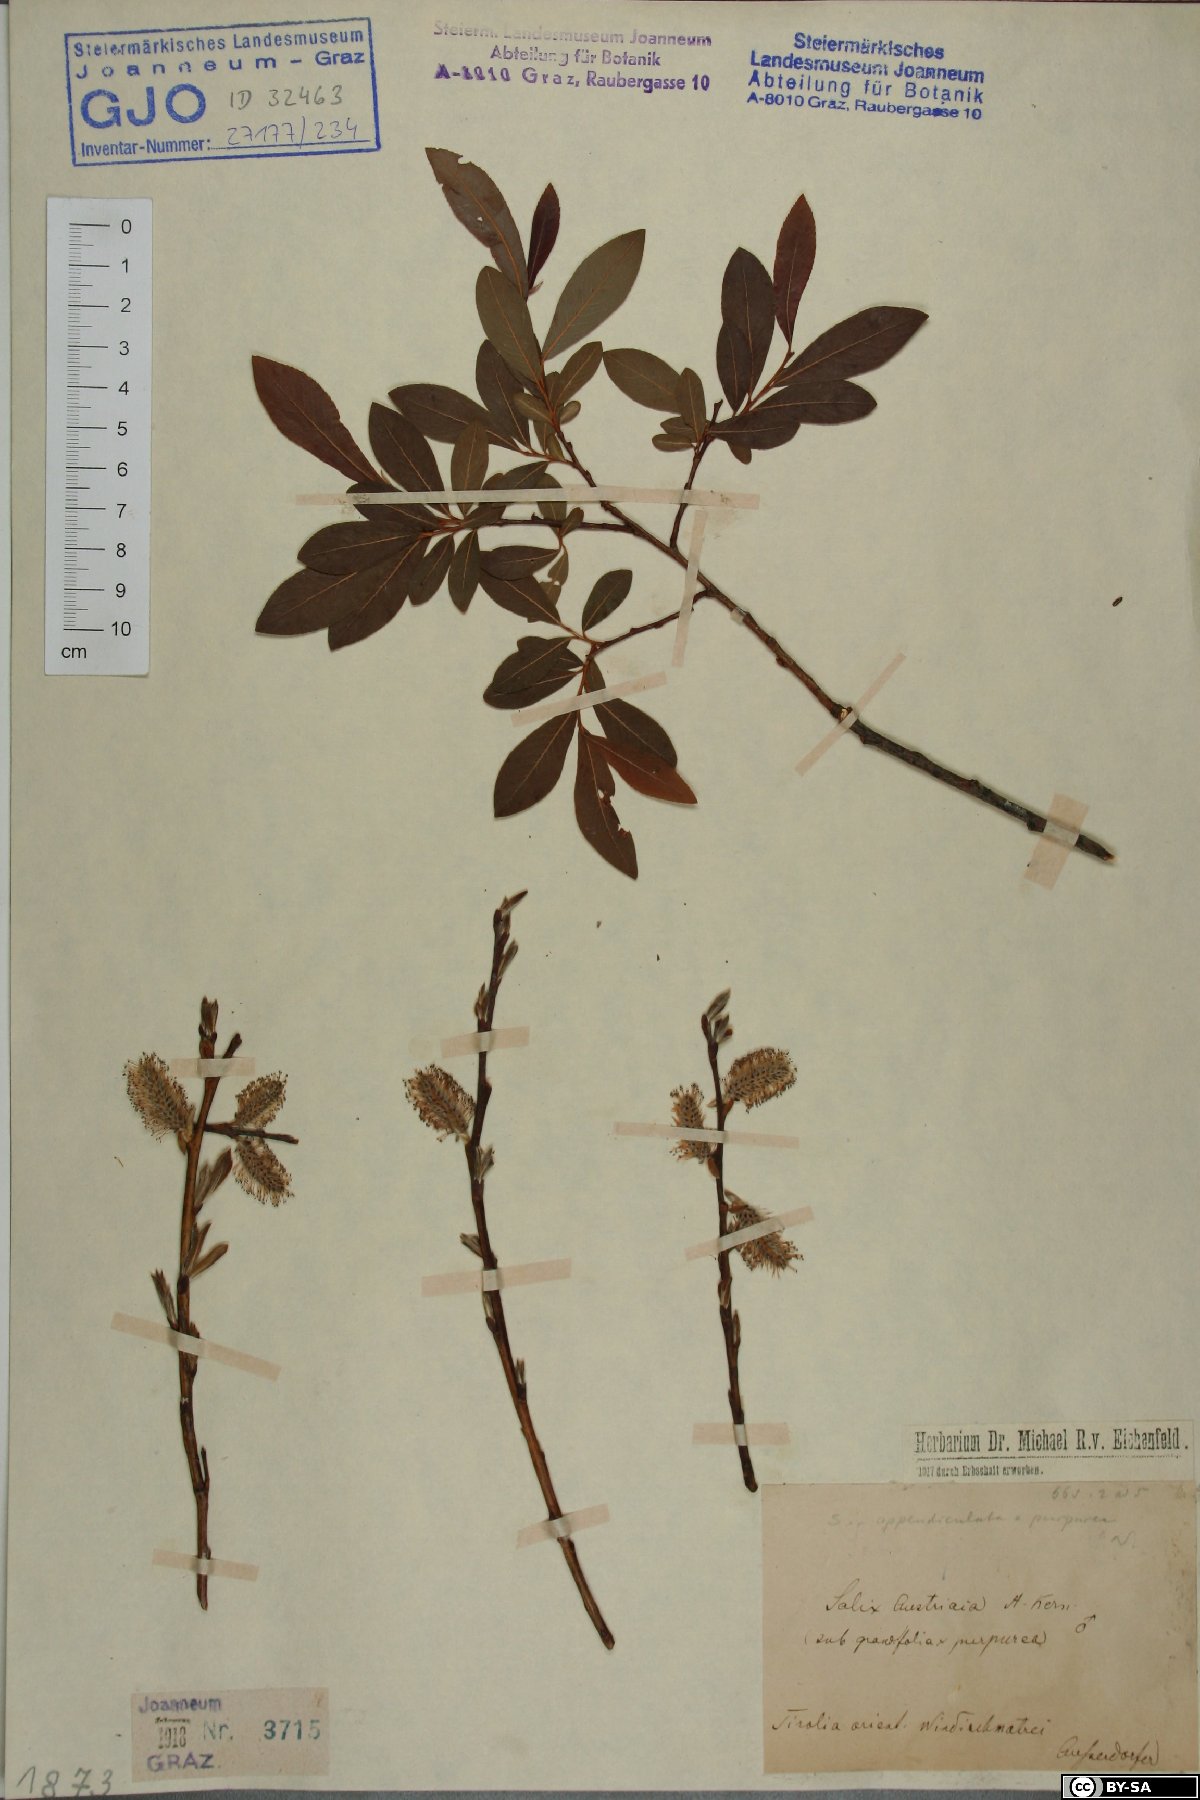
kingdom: Plantae
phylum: Tracheophyta
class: Magnoliopsida
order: Malpighiales
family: Salicaceae
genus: Salix
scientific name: Salix austriaca
